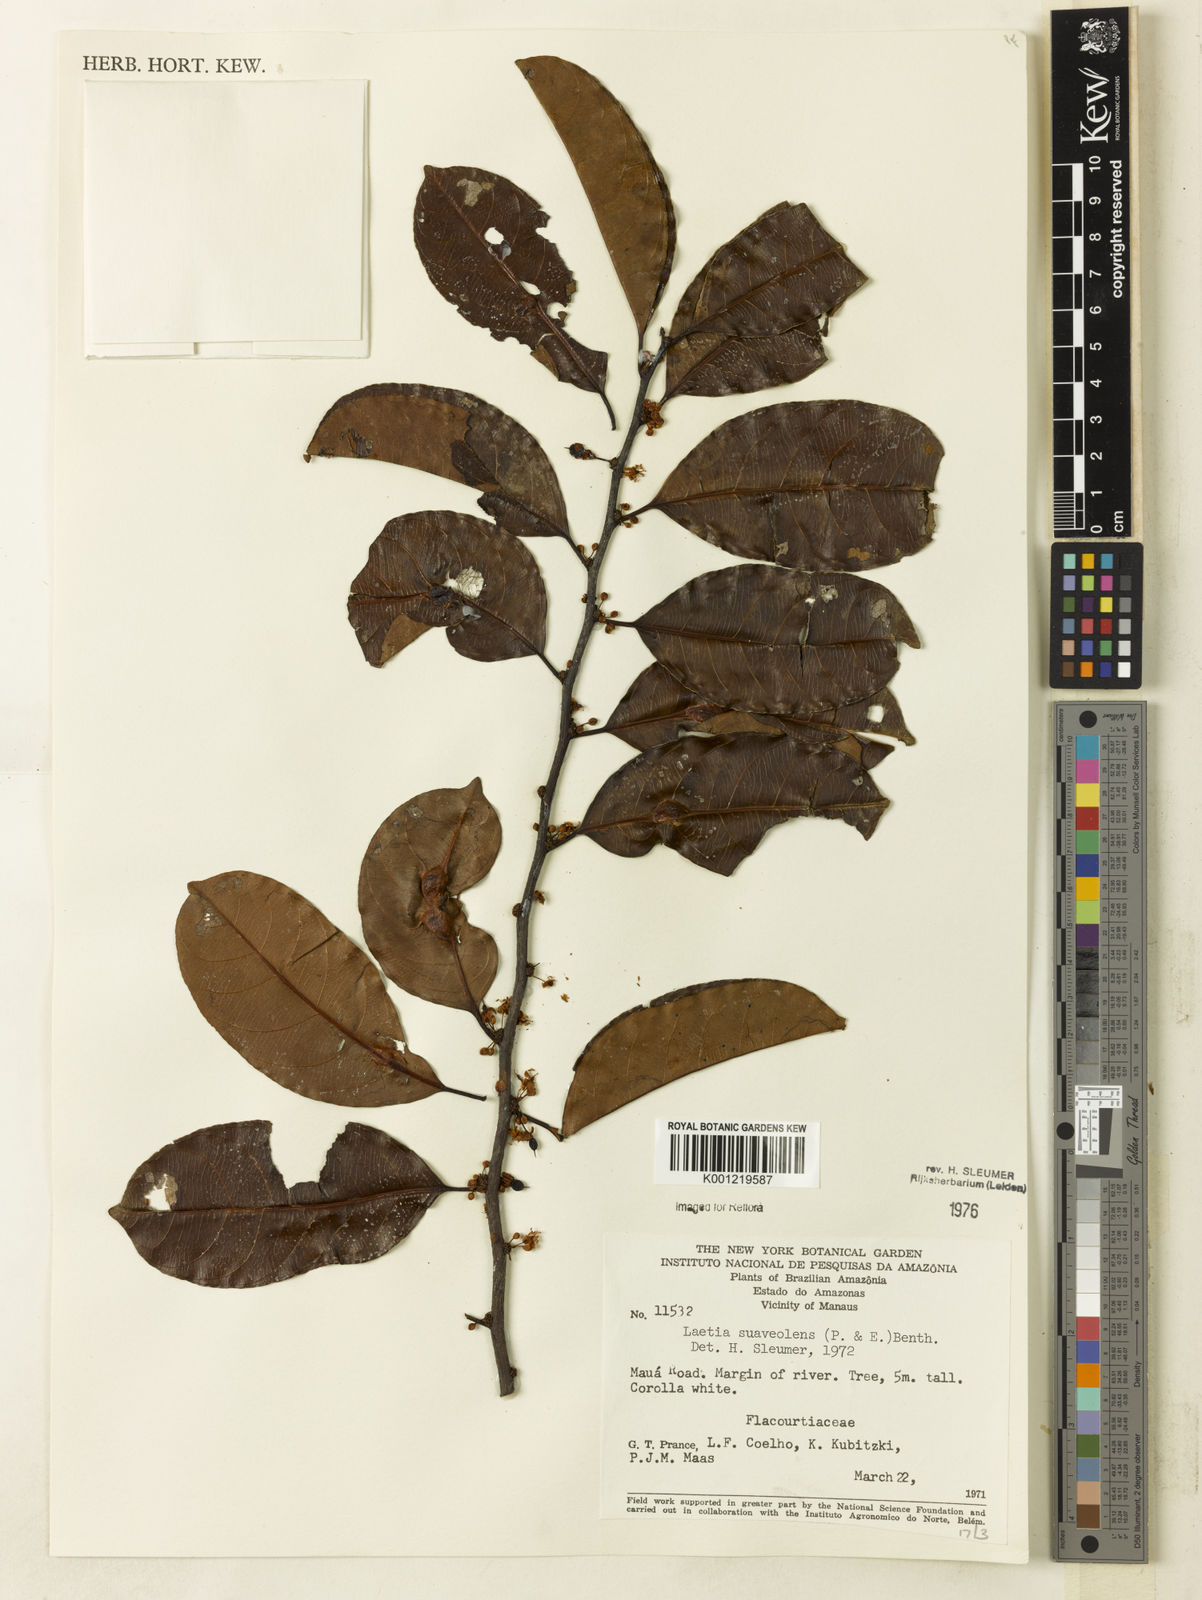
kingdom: Plantae
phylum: Tracheophyta
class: Magnoliopsida
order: Malpighiales
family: Salicaceae
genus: Casearia
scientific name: Casearia suaveolens
